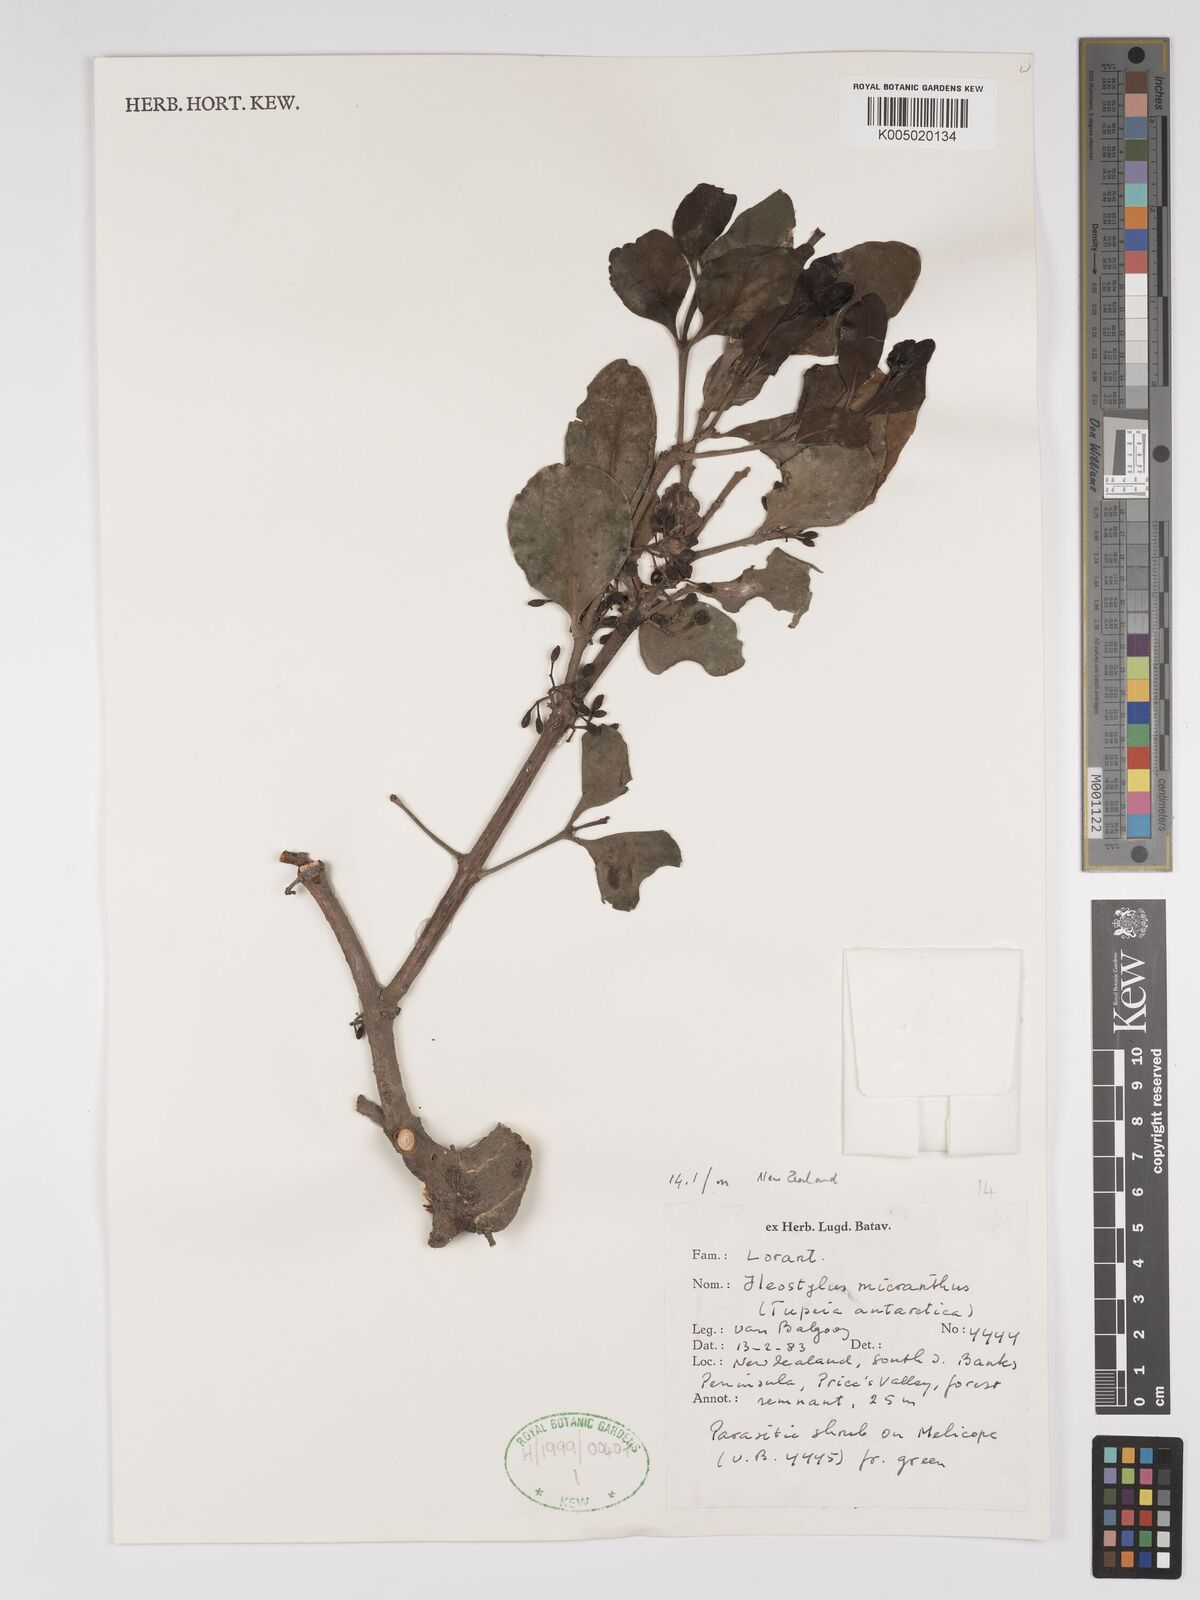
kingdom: Plantae
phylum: Tracheophyta
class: Magnoliopsida
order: Santalales
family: Loranthaceae
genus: Tupeia
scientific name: Tupeia antarctica
